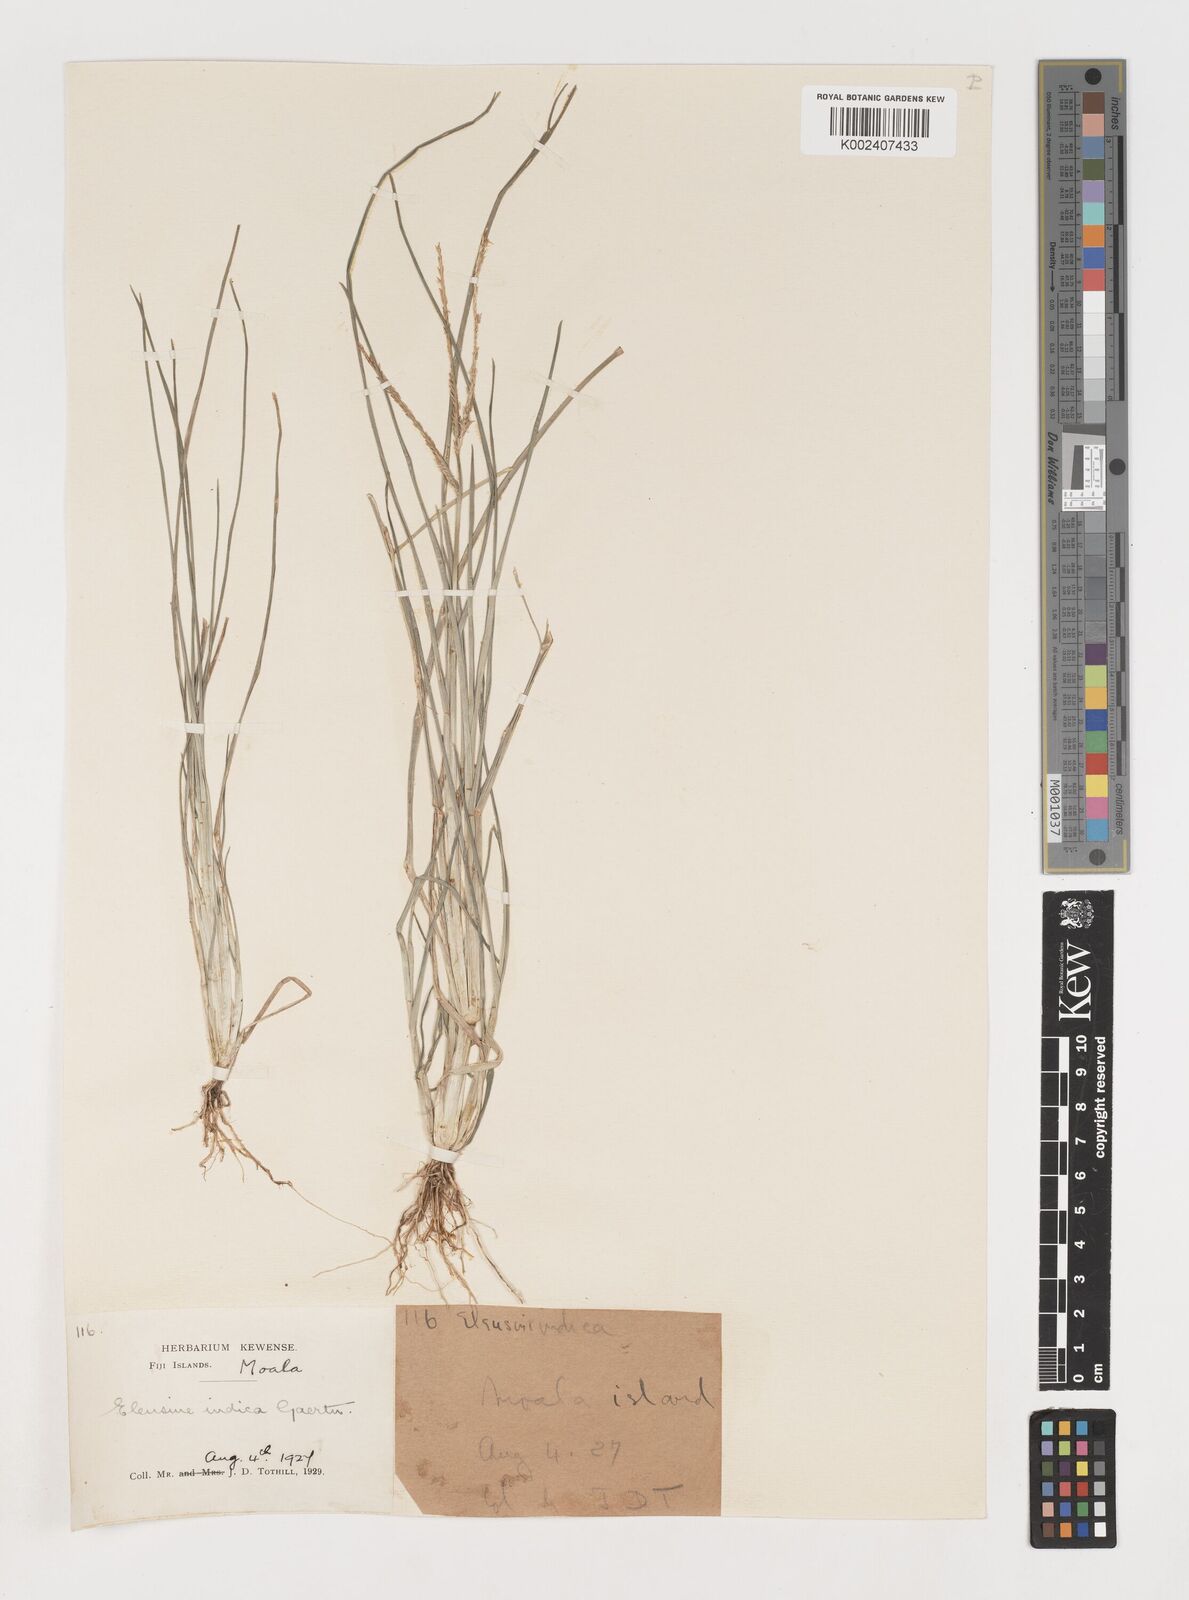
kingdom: Plantae
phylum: Tracheophyta
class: Liliopsida
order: Poales
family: Poaceae
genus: Eleusine
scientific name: Eleusine indica
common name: Yard-grass
